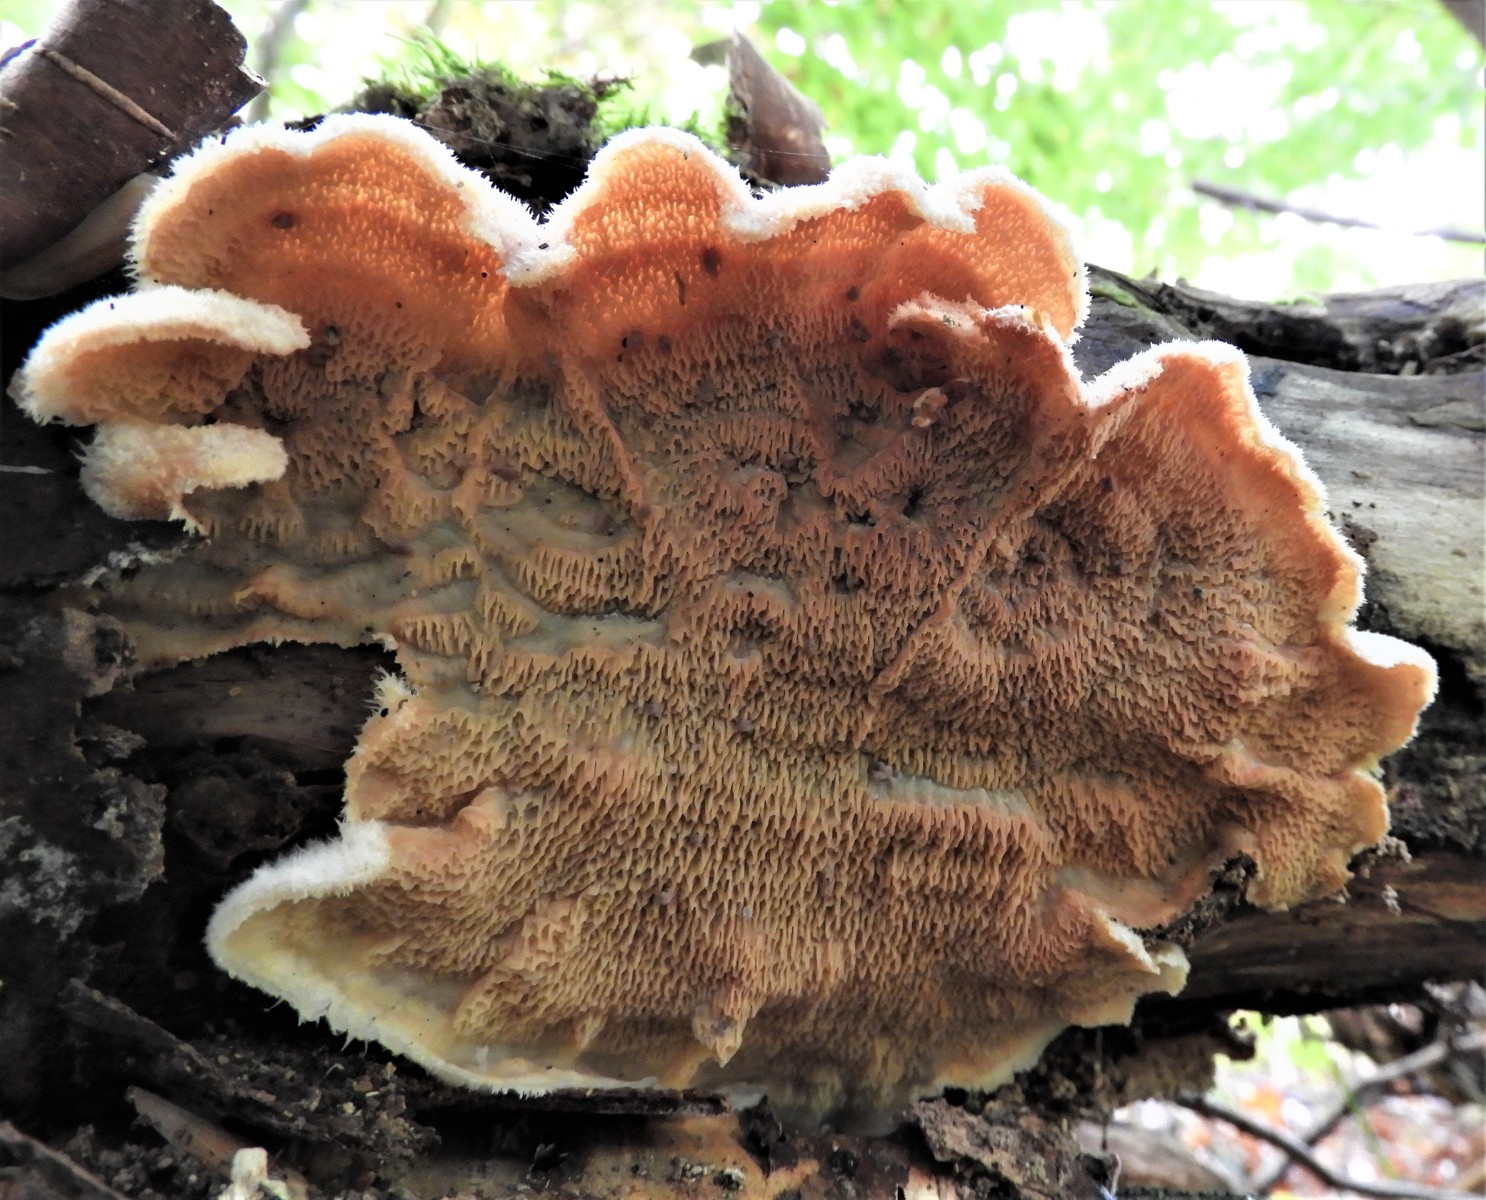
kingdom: Fungi
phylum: Basidiomycota
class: Agaricomycetes
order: Polyporales
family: Meruliaceae
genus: Phlebia
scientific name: Phlebia tremellosa
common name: bævrende åresvamp
